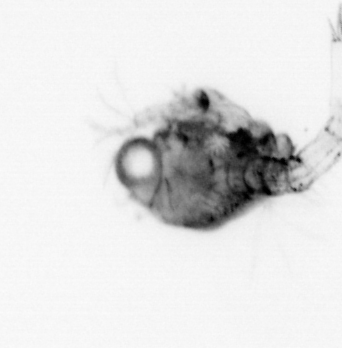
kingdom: Animalia
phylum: Arthropoda
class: Malacostraca
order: Decapoda
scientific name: Decapoda
